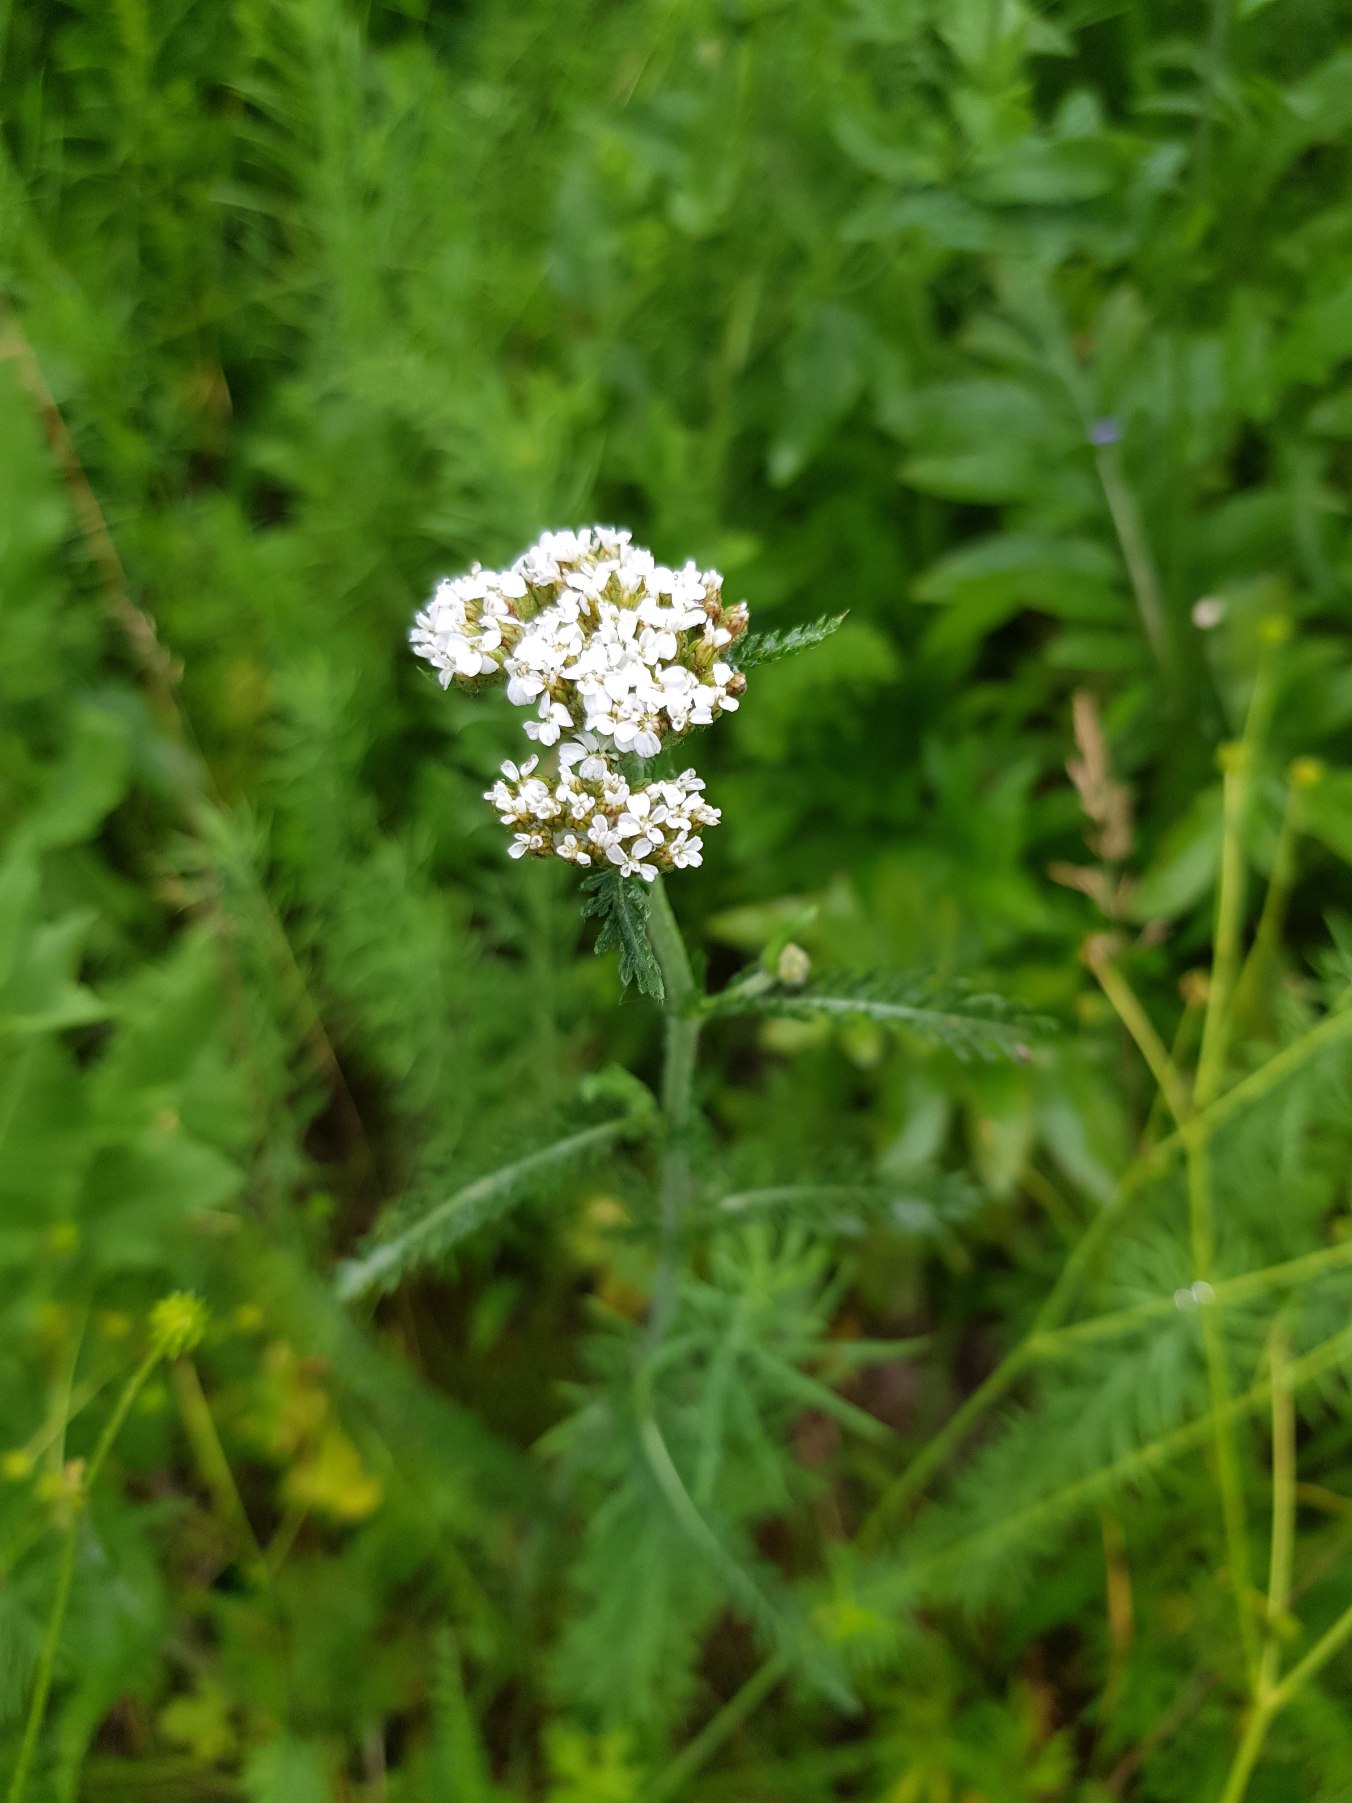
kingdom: Plantae
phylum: Tracheophyta
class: Magnoliopsida
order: Asterales
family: Asteraceae
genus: Achillea
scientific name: Achillea millefolium
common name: Almindelig røllike
